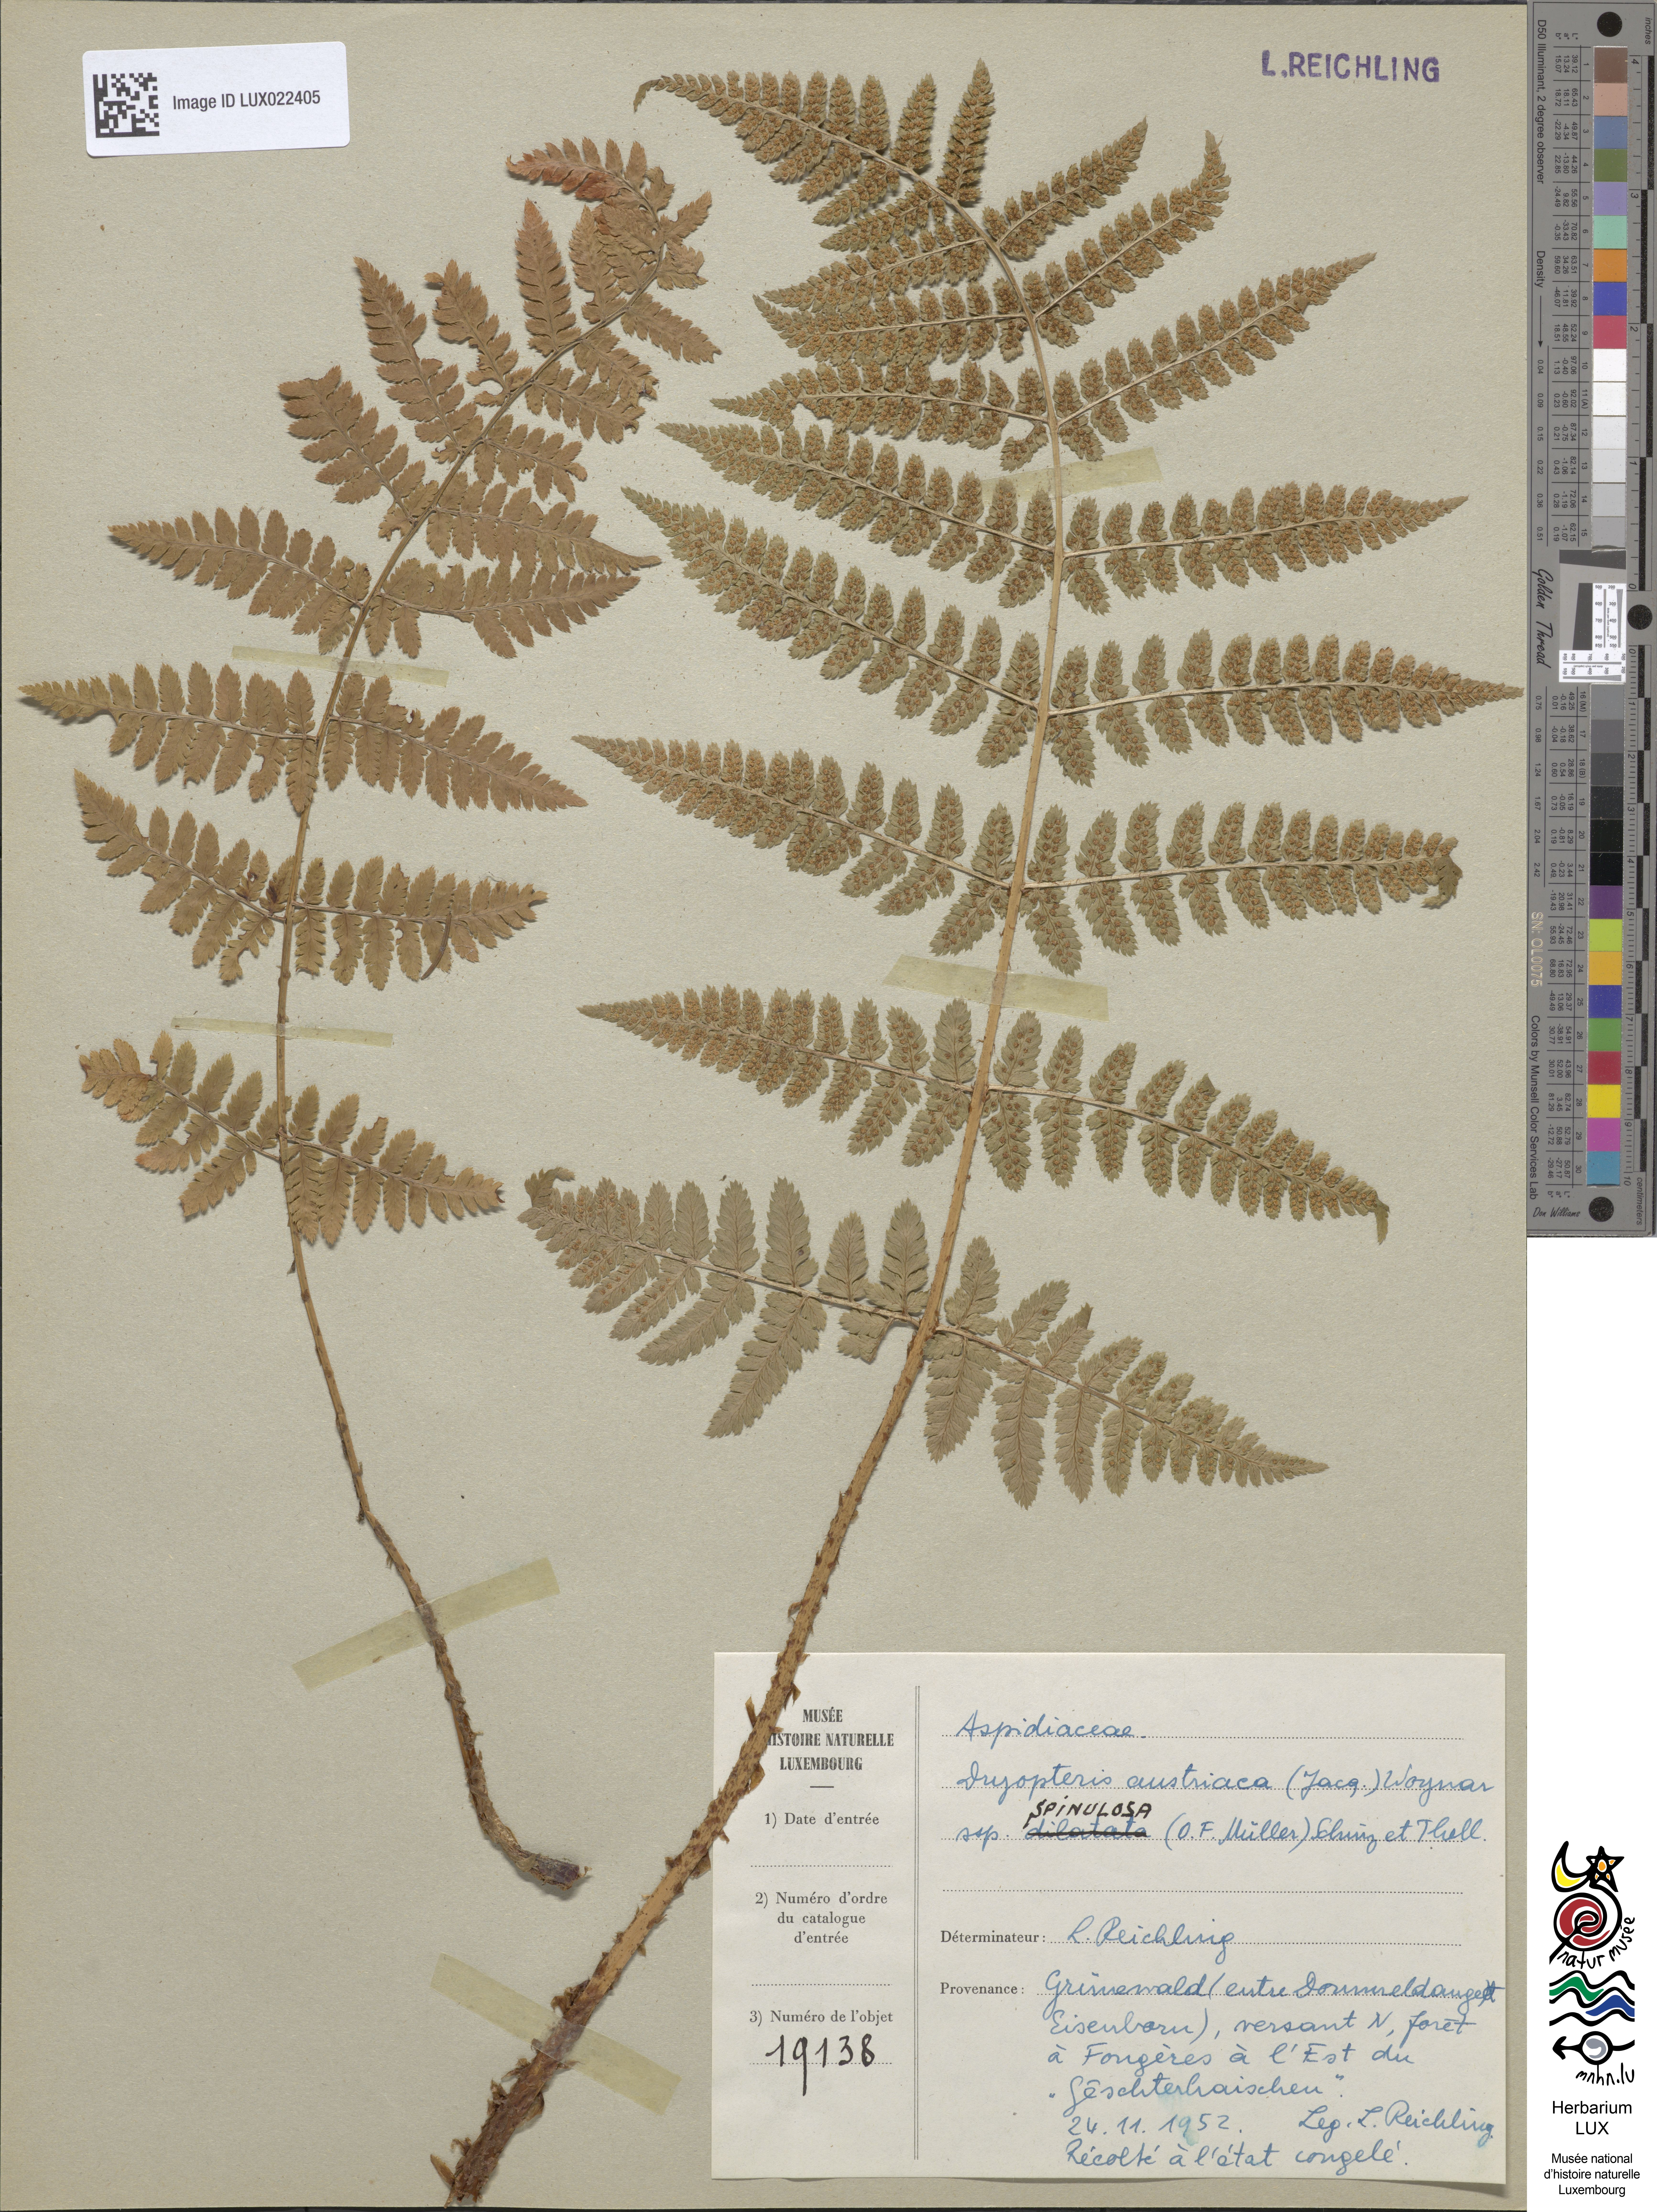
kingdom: Plantae
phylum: Tracheophyta
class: Polypodiopsida
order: Polypodiales
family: Dryopteridaceae
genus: Dryopteris
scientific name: Dryopteris carthusiana
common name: Narrow buckler-fern
